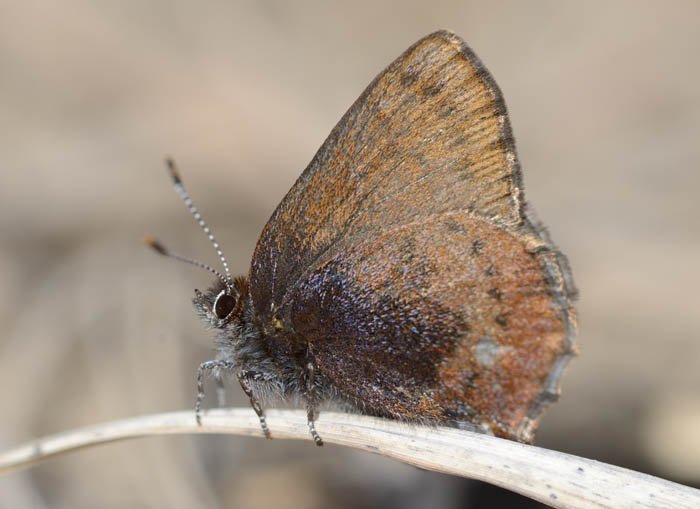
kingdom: Animalia
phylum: Arthropoda
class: Insecta
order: Lepidoptera
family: Lycaenidae
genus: Incisalia
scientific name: Incisalia irioides
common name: Brown Elfin
